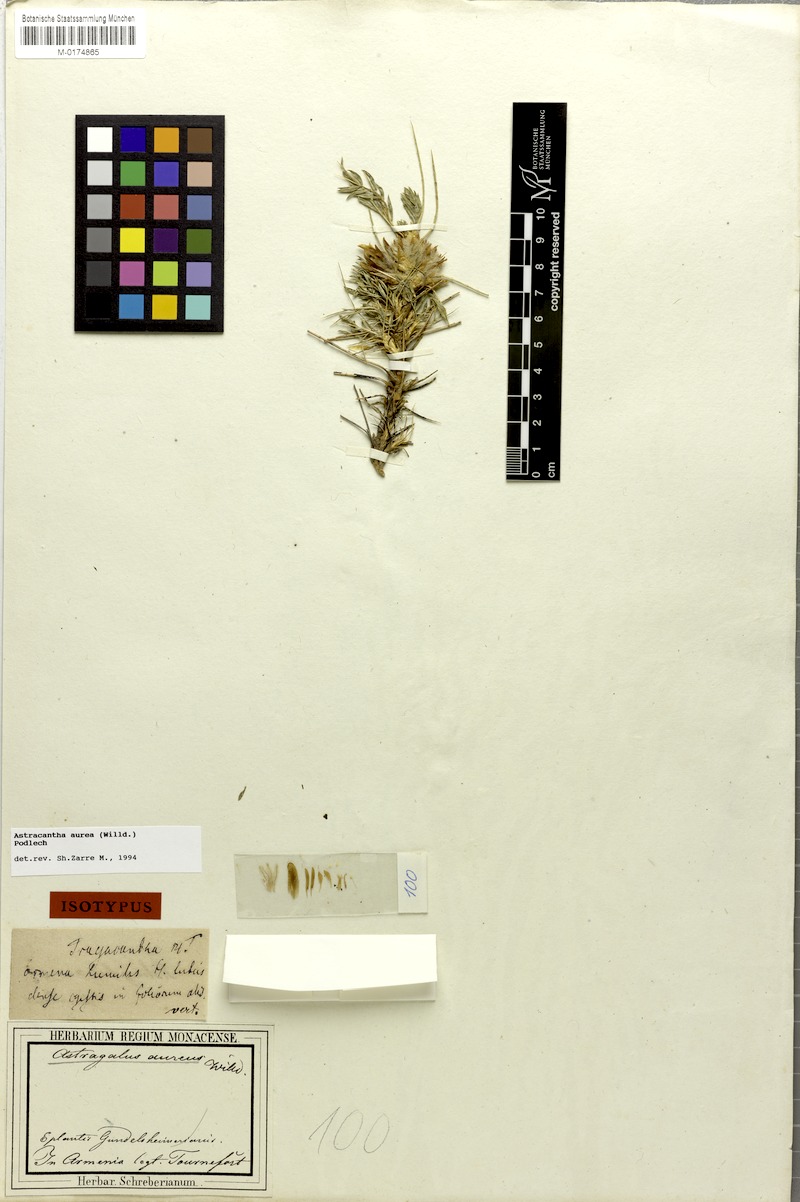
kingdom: Plantae
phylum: Tracheophyta
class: Magnoliopsida
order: Fabales
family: Fabaceae
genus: Astragalus
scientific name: Astragalus aureus
